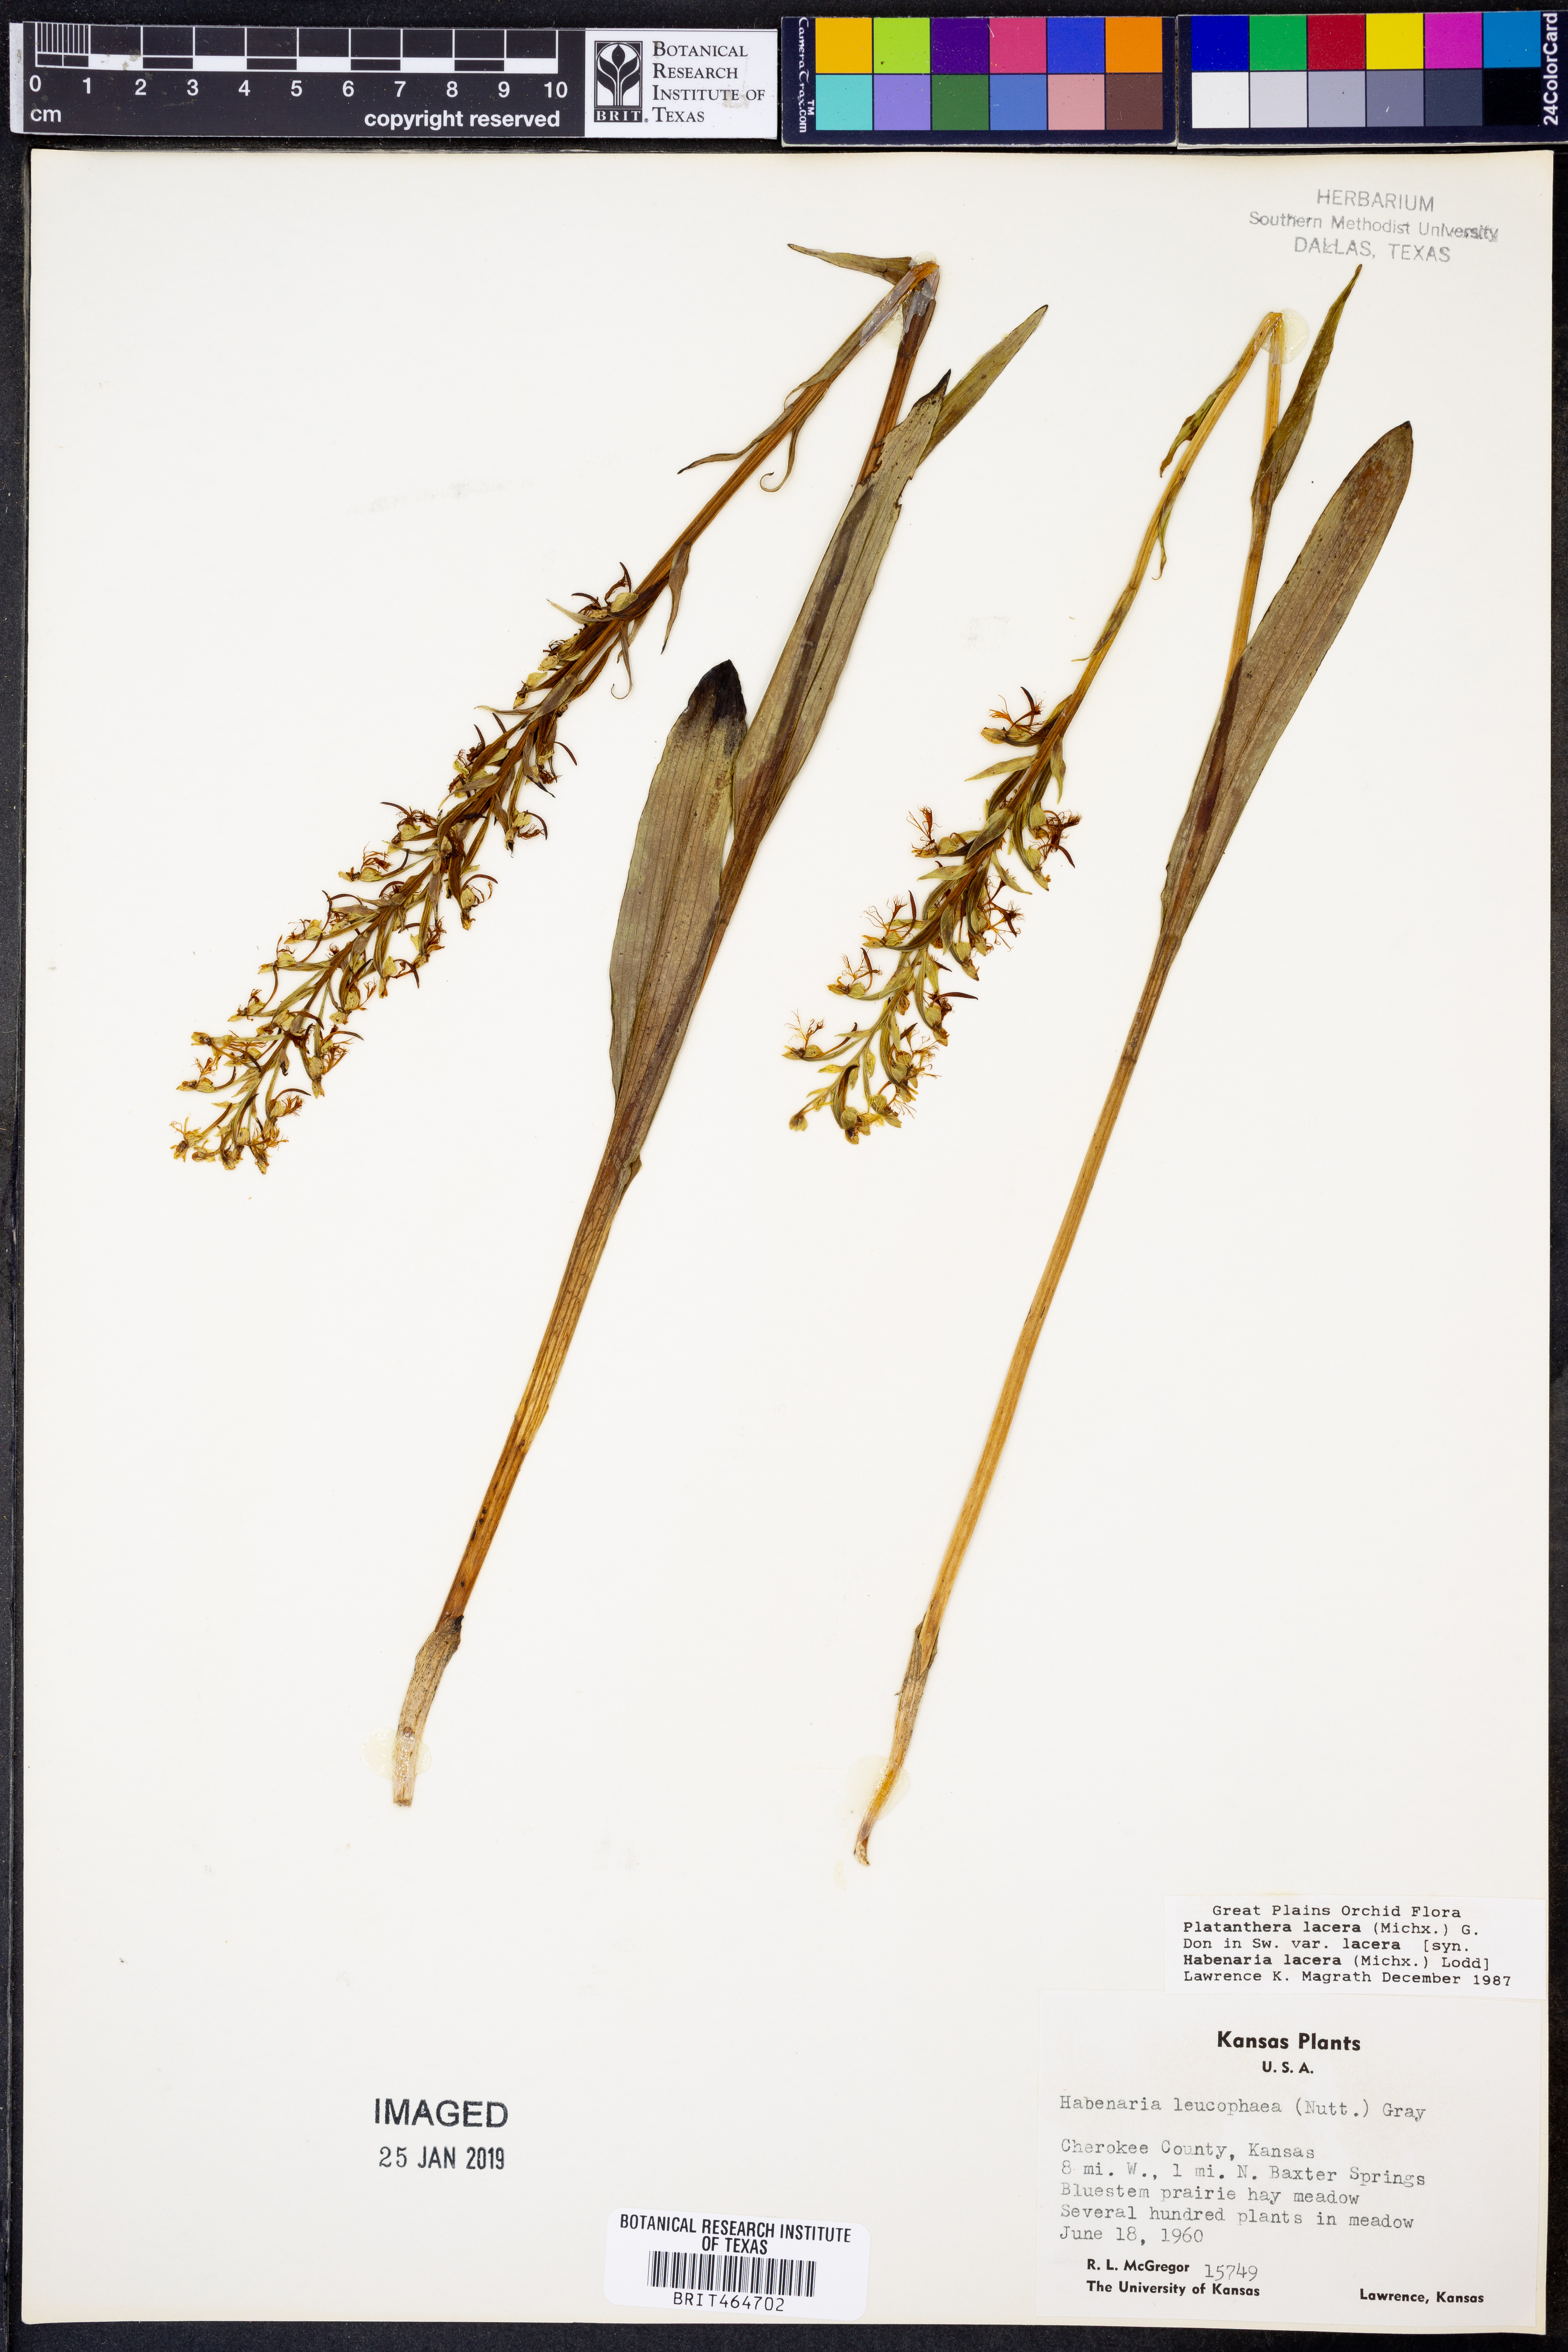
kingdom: Plantae
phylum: Tracheophyta
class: Liliopsida
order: Asparagales
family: Orchidaceae
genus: Platanthera
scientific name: Platanthera lacera
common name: Green fringed orchid
